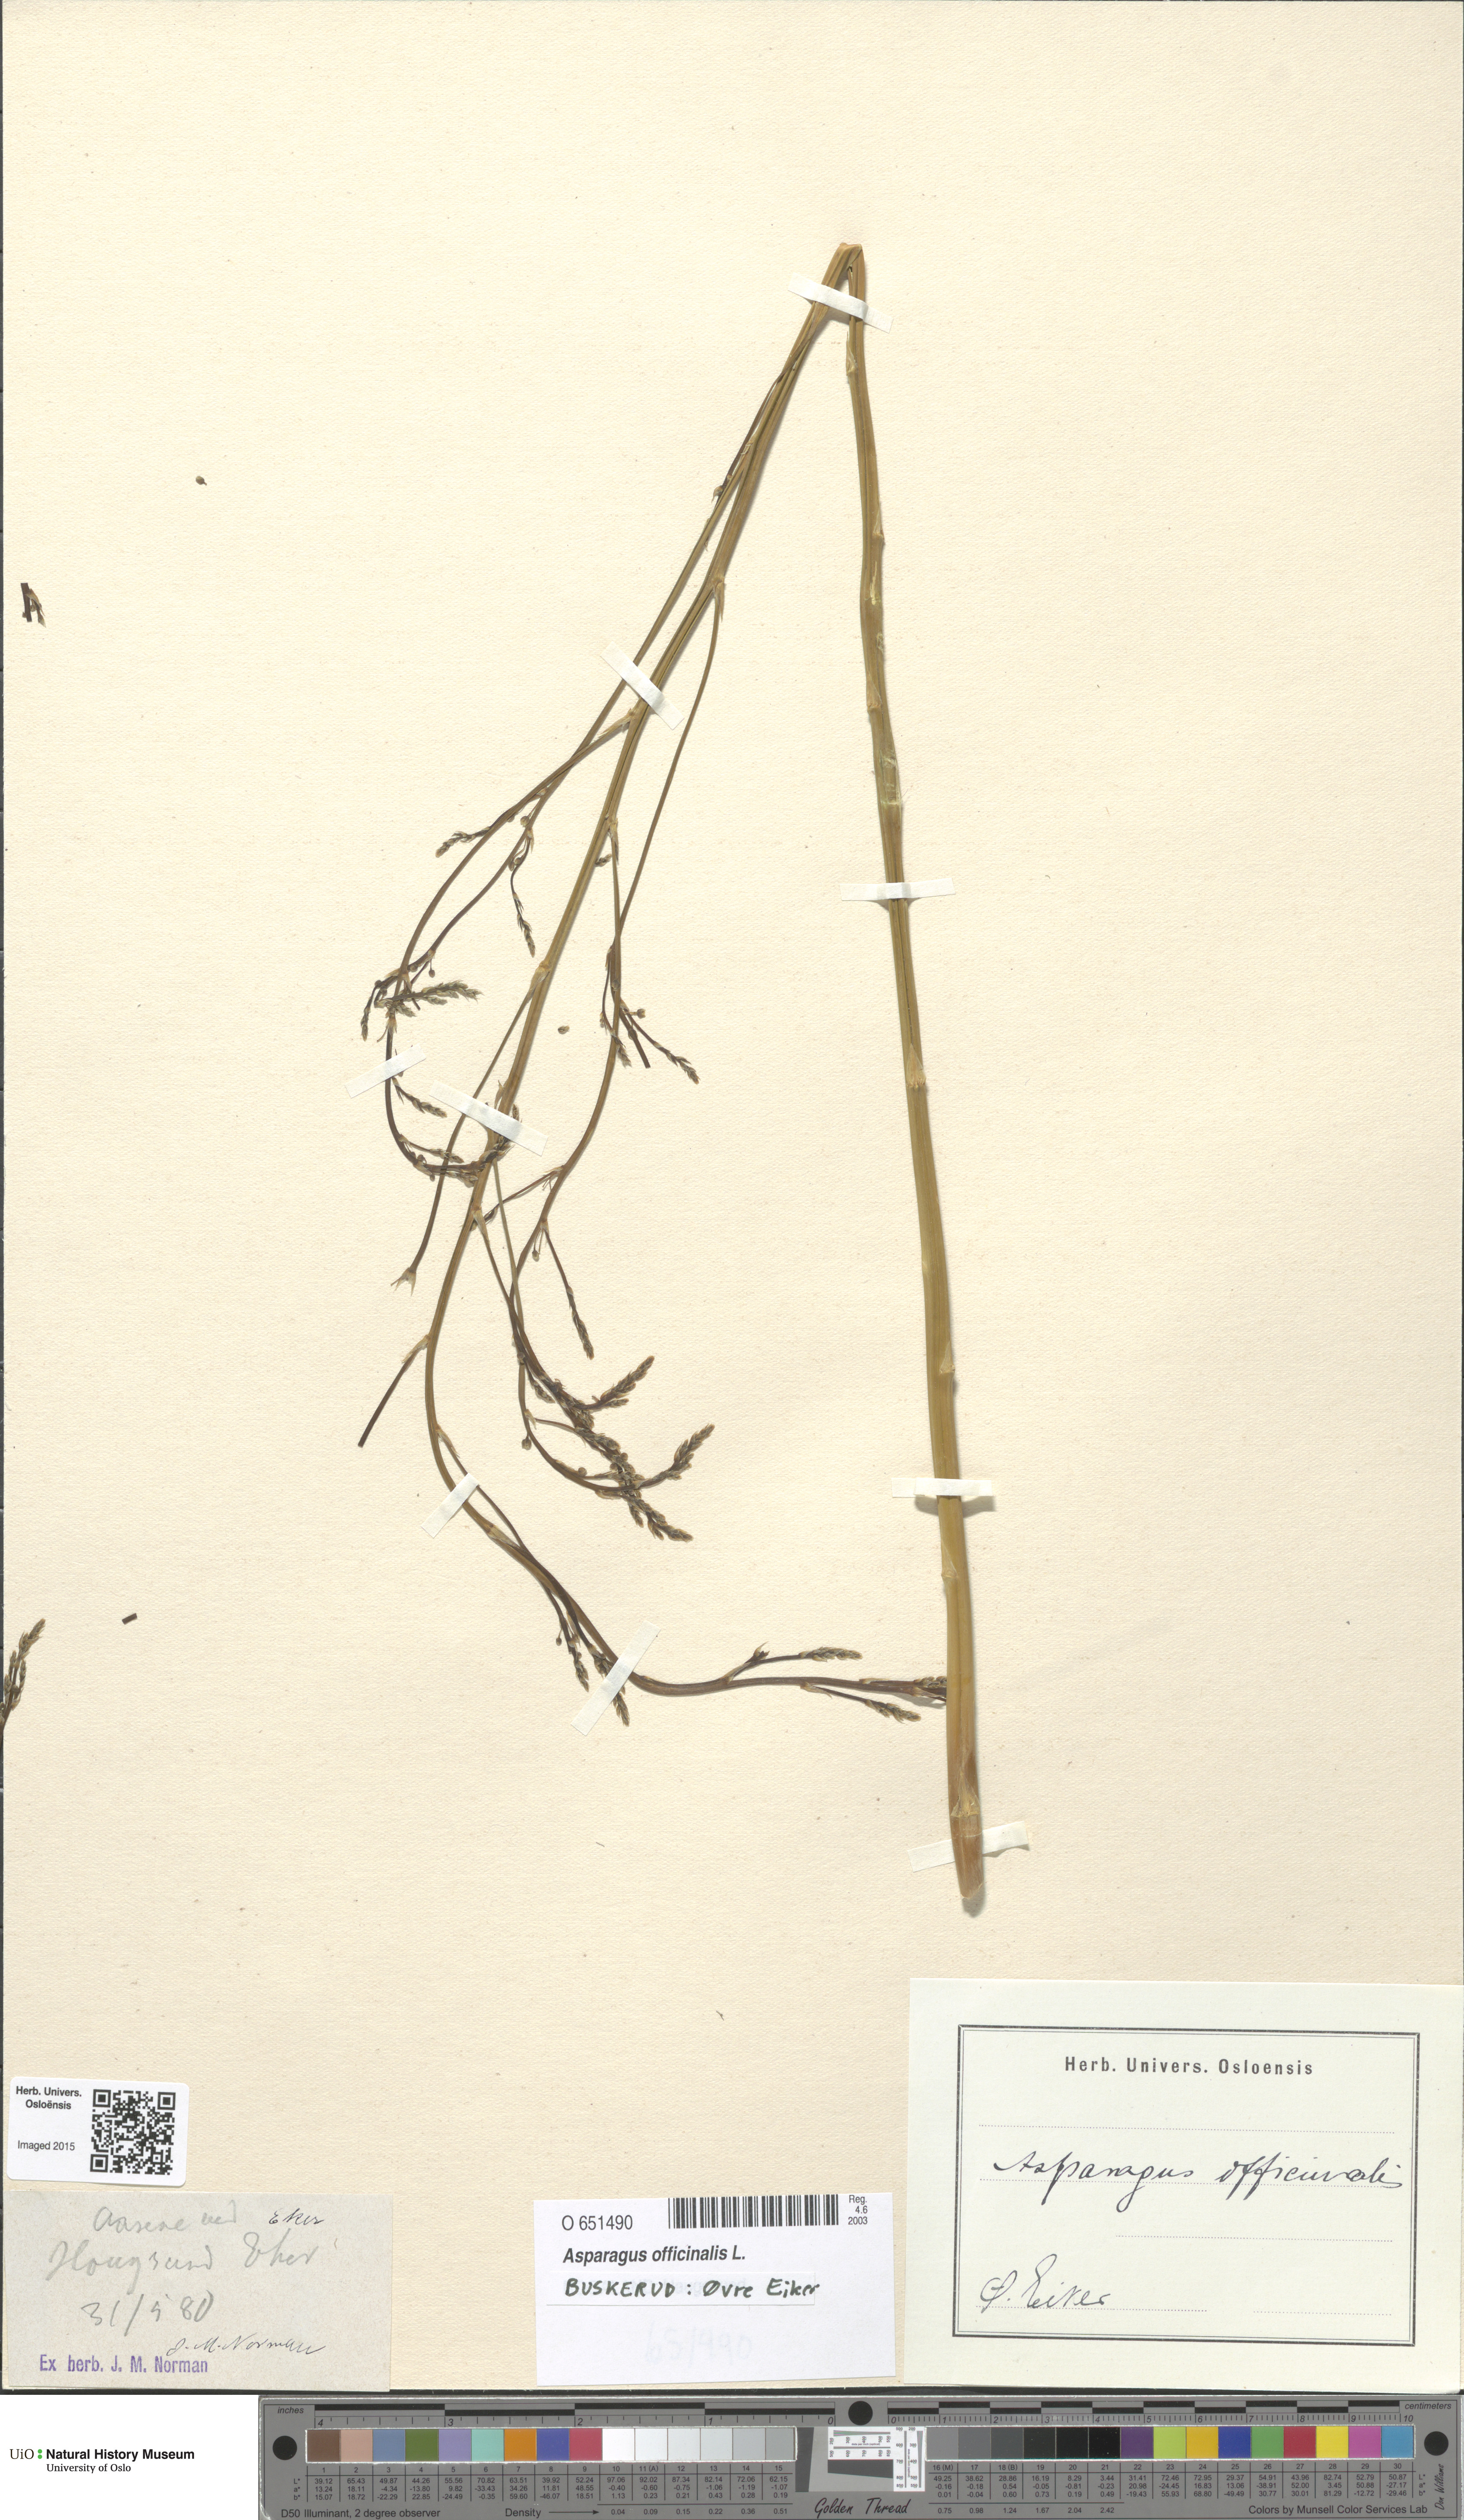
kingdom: Plantae
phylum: Tracheophyta
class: Liliopsida
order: Asparagales
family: Asparagaceae
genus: Asparagus
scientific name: Asparagus officinalis
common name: Garden asparagus
